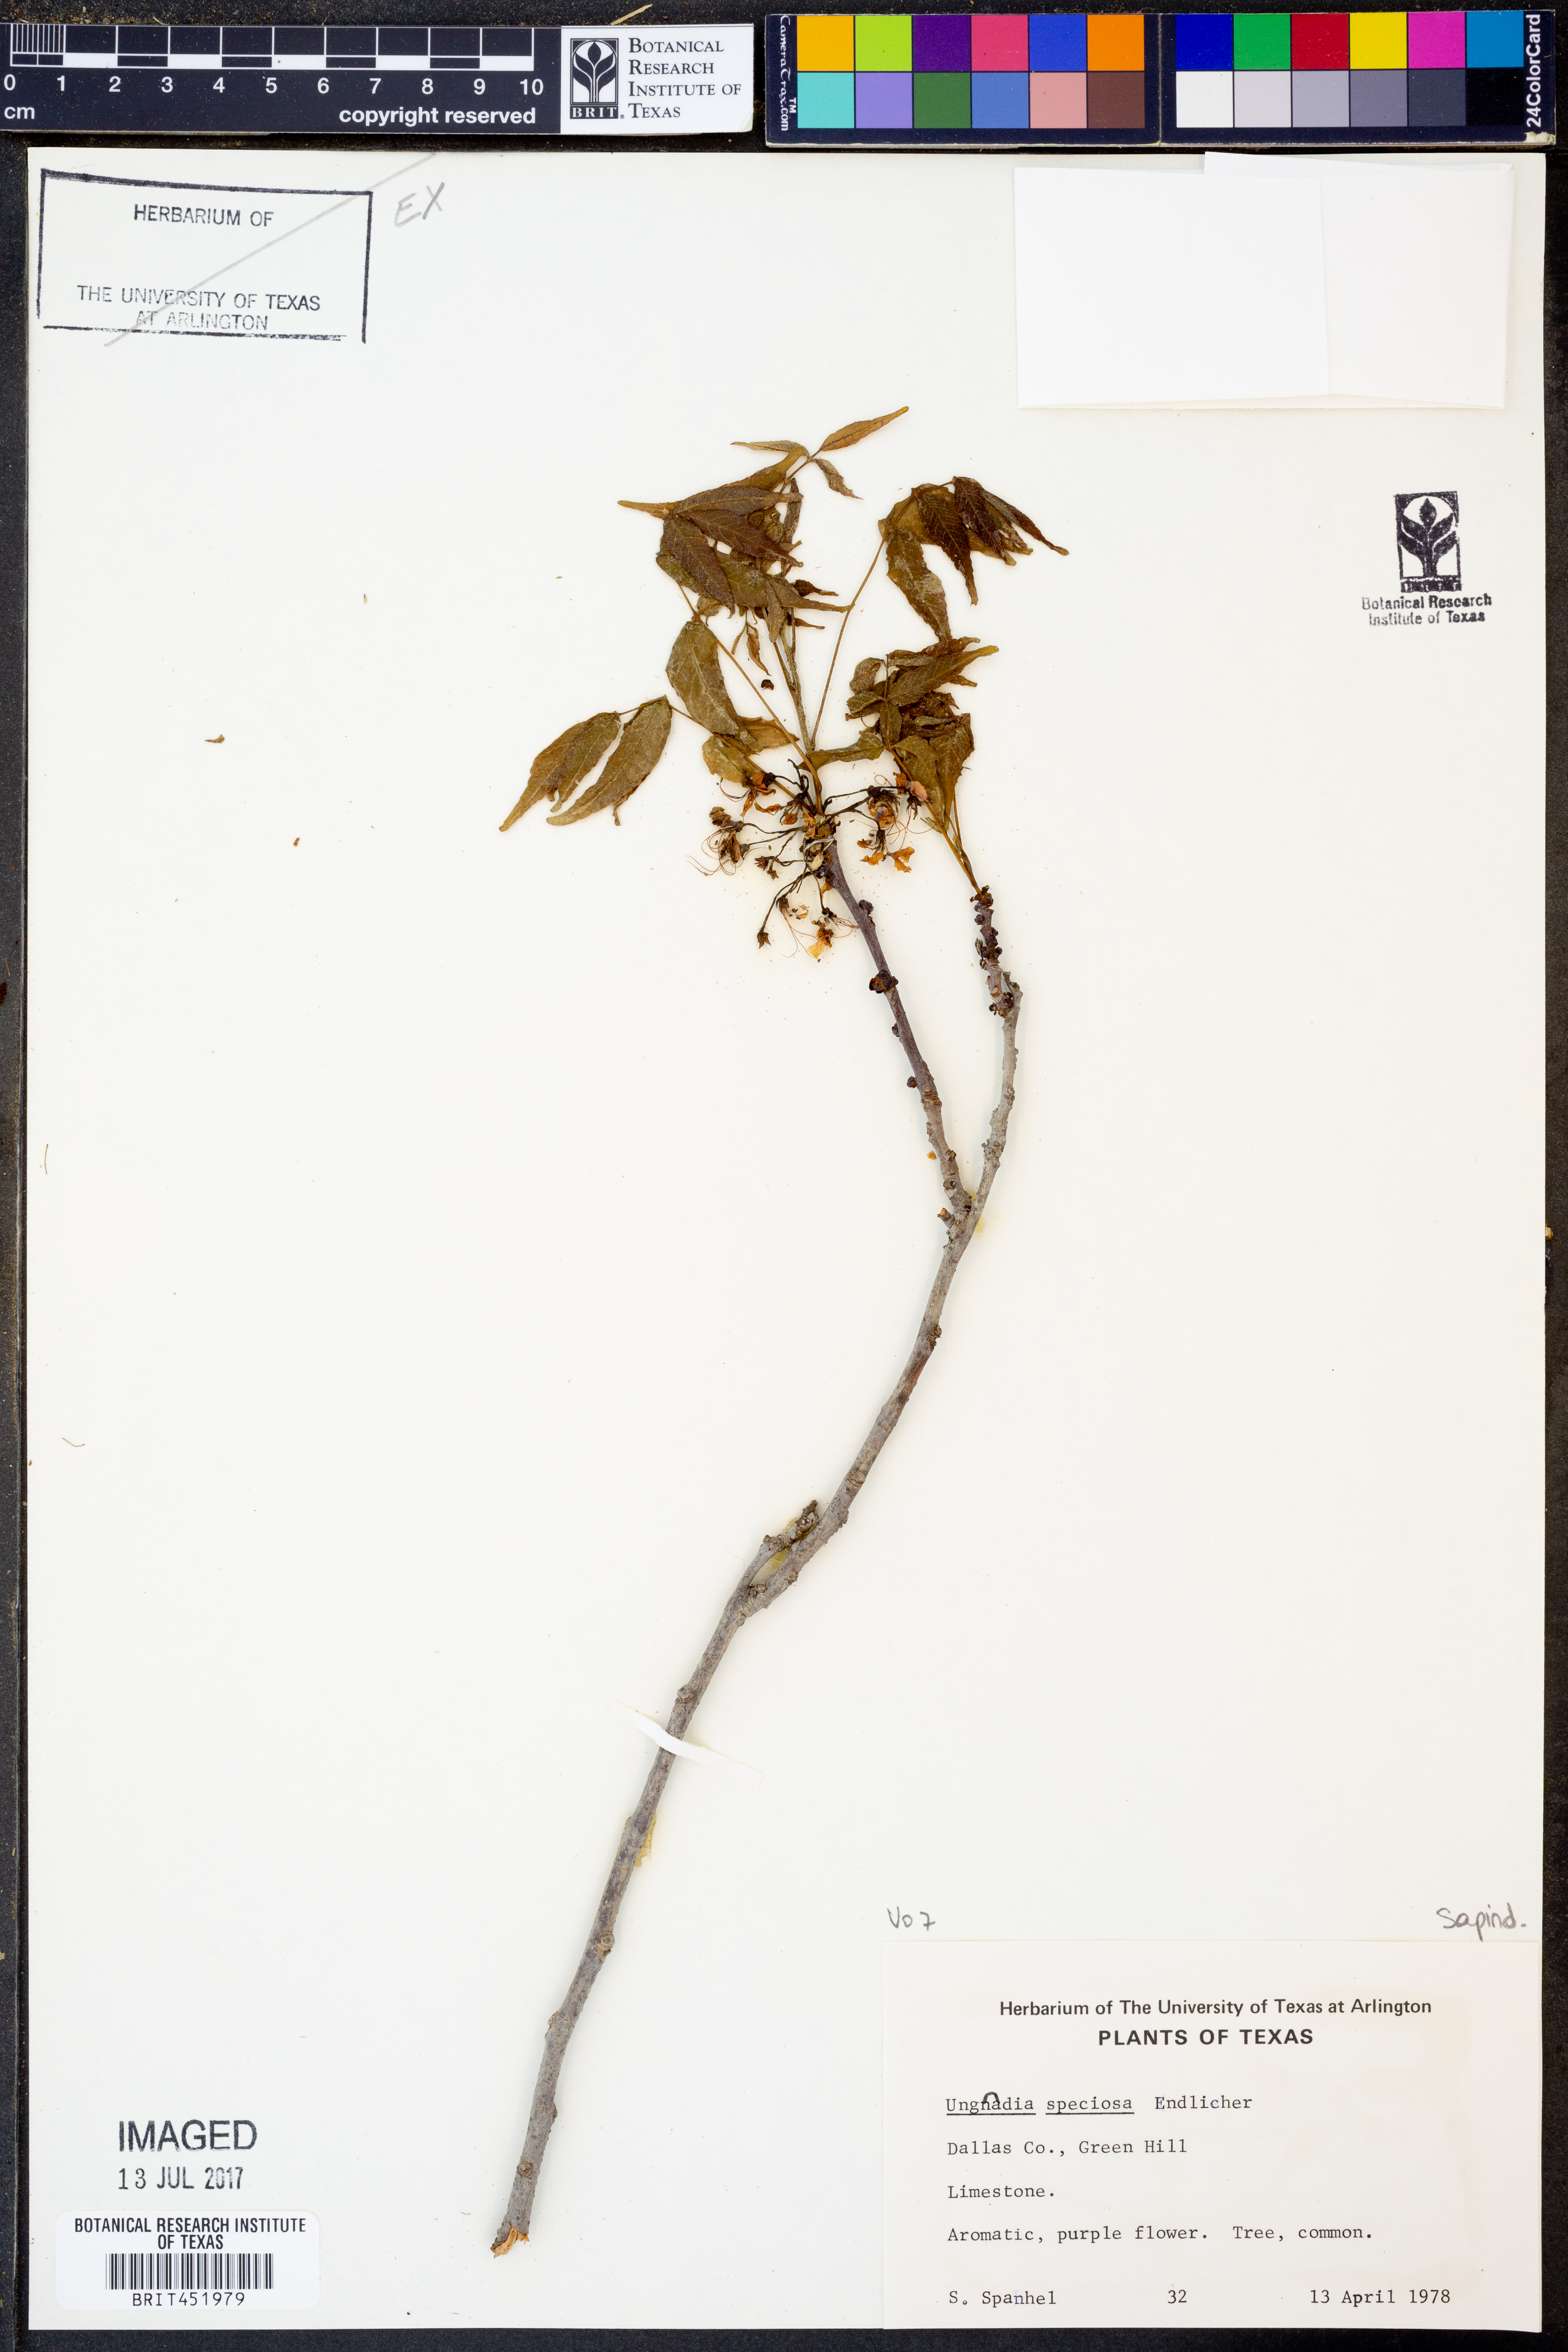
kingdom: Plantae
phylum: Tracheophyta
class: Magnoliopsida
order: Sapindales
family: Sapindaceae
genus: Ungnadia
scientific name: Ungnadia speciosa
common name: Texas-buckeye
